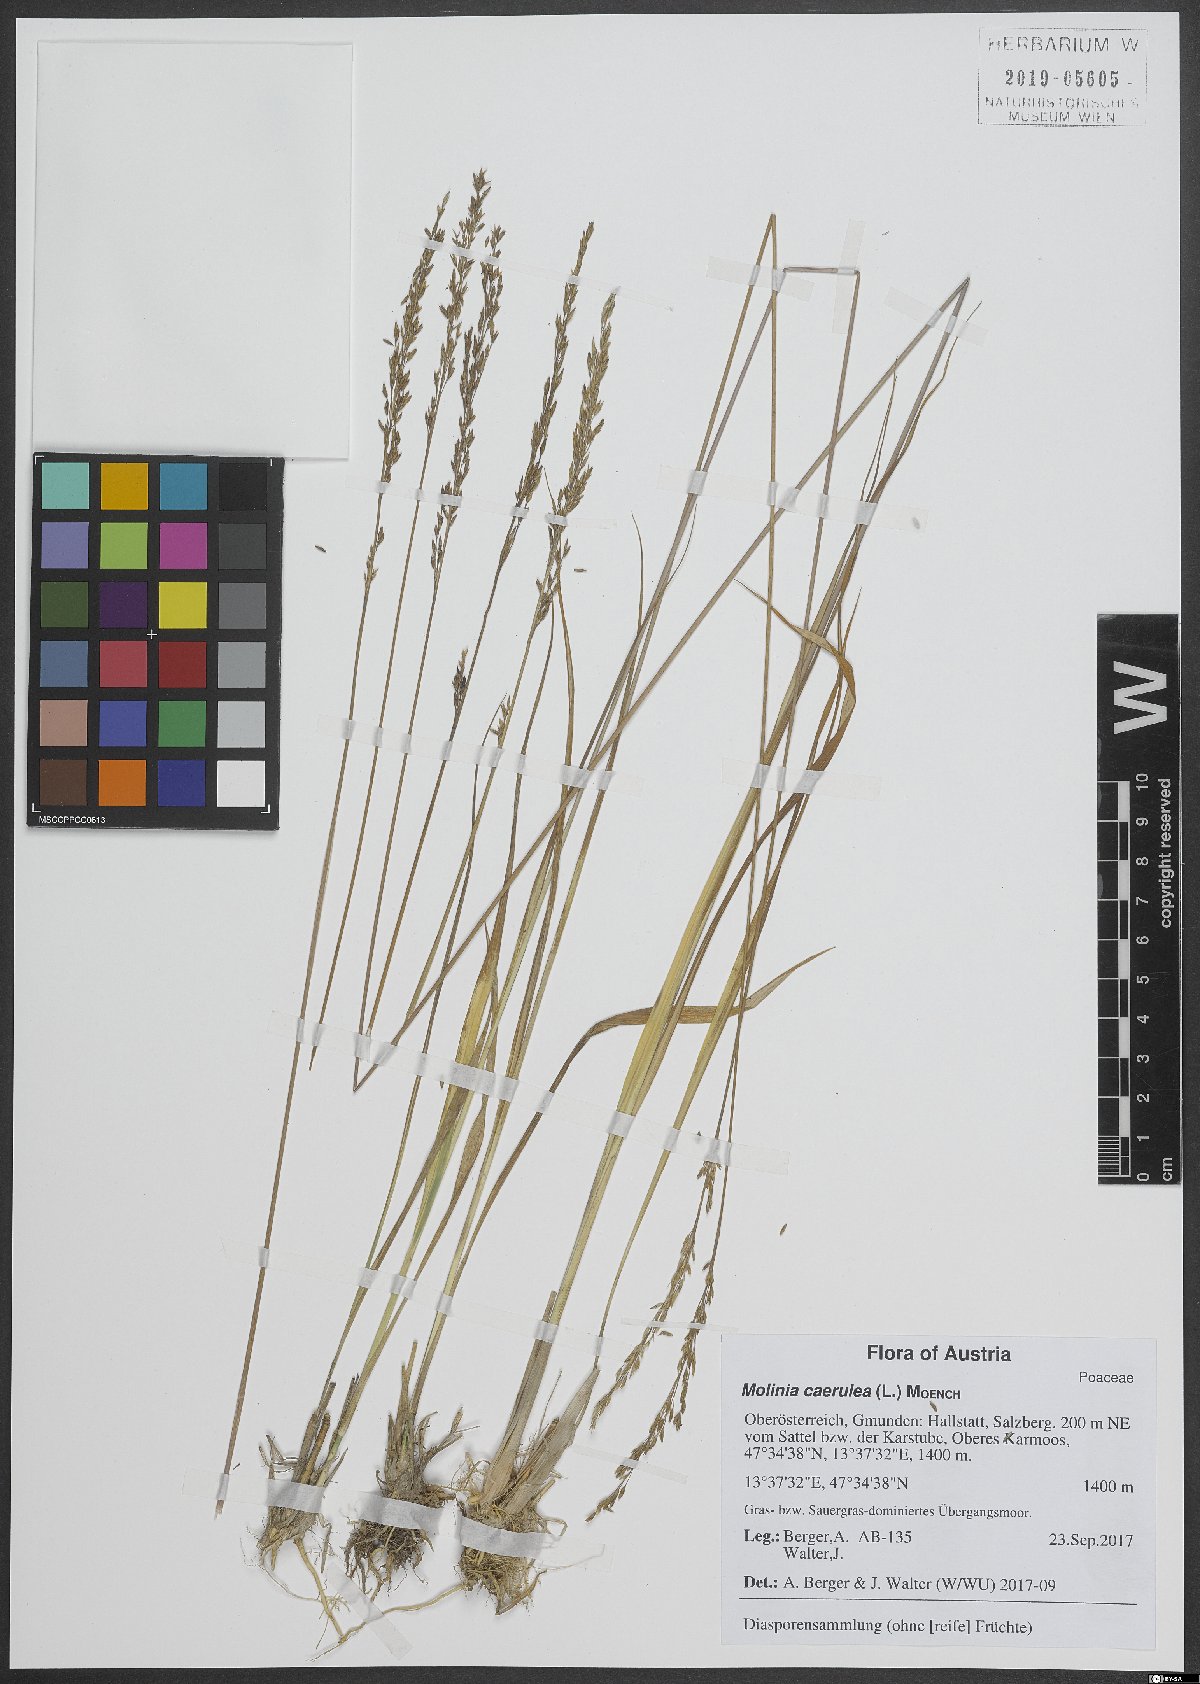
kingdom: Plantae
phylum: Tracheophyta
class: Liliopsida
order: Poales
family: Poaceae
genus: Molinia
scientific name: Molinia caerulea
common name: Purple moor-grass
